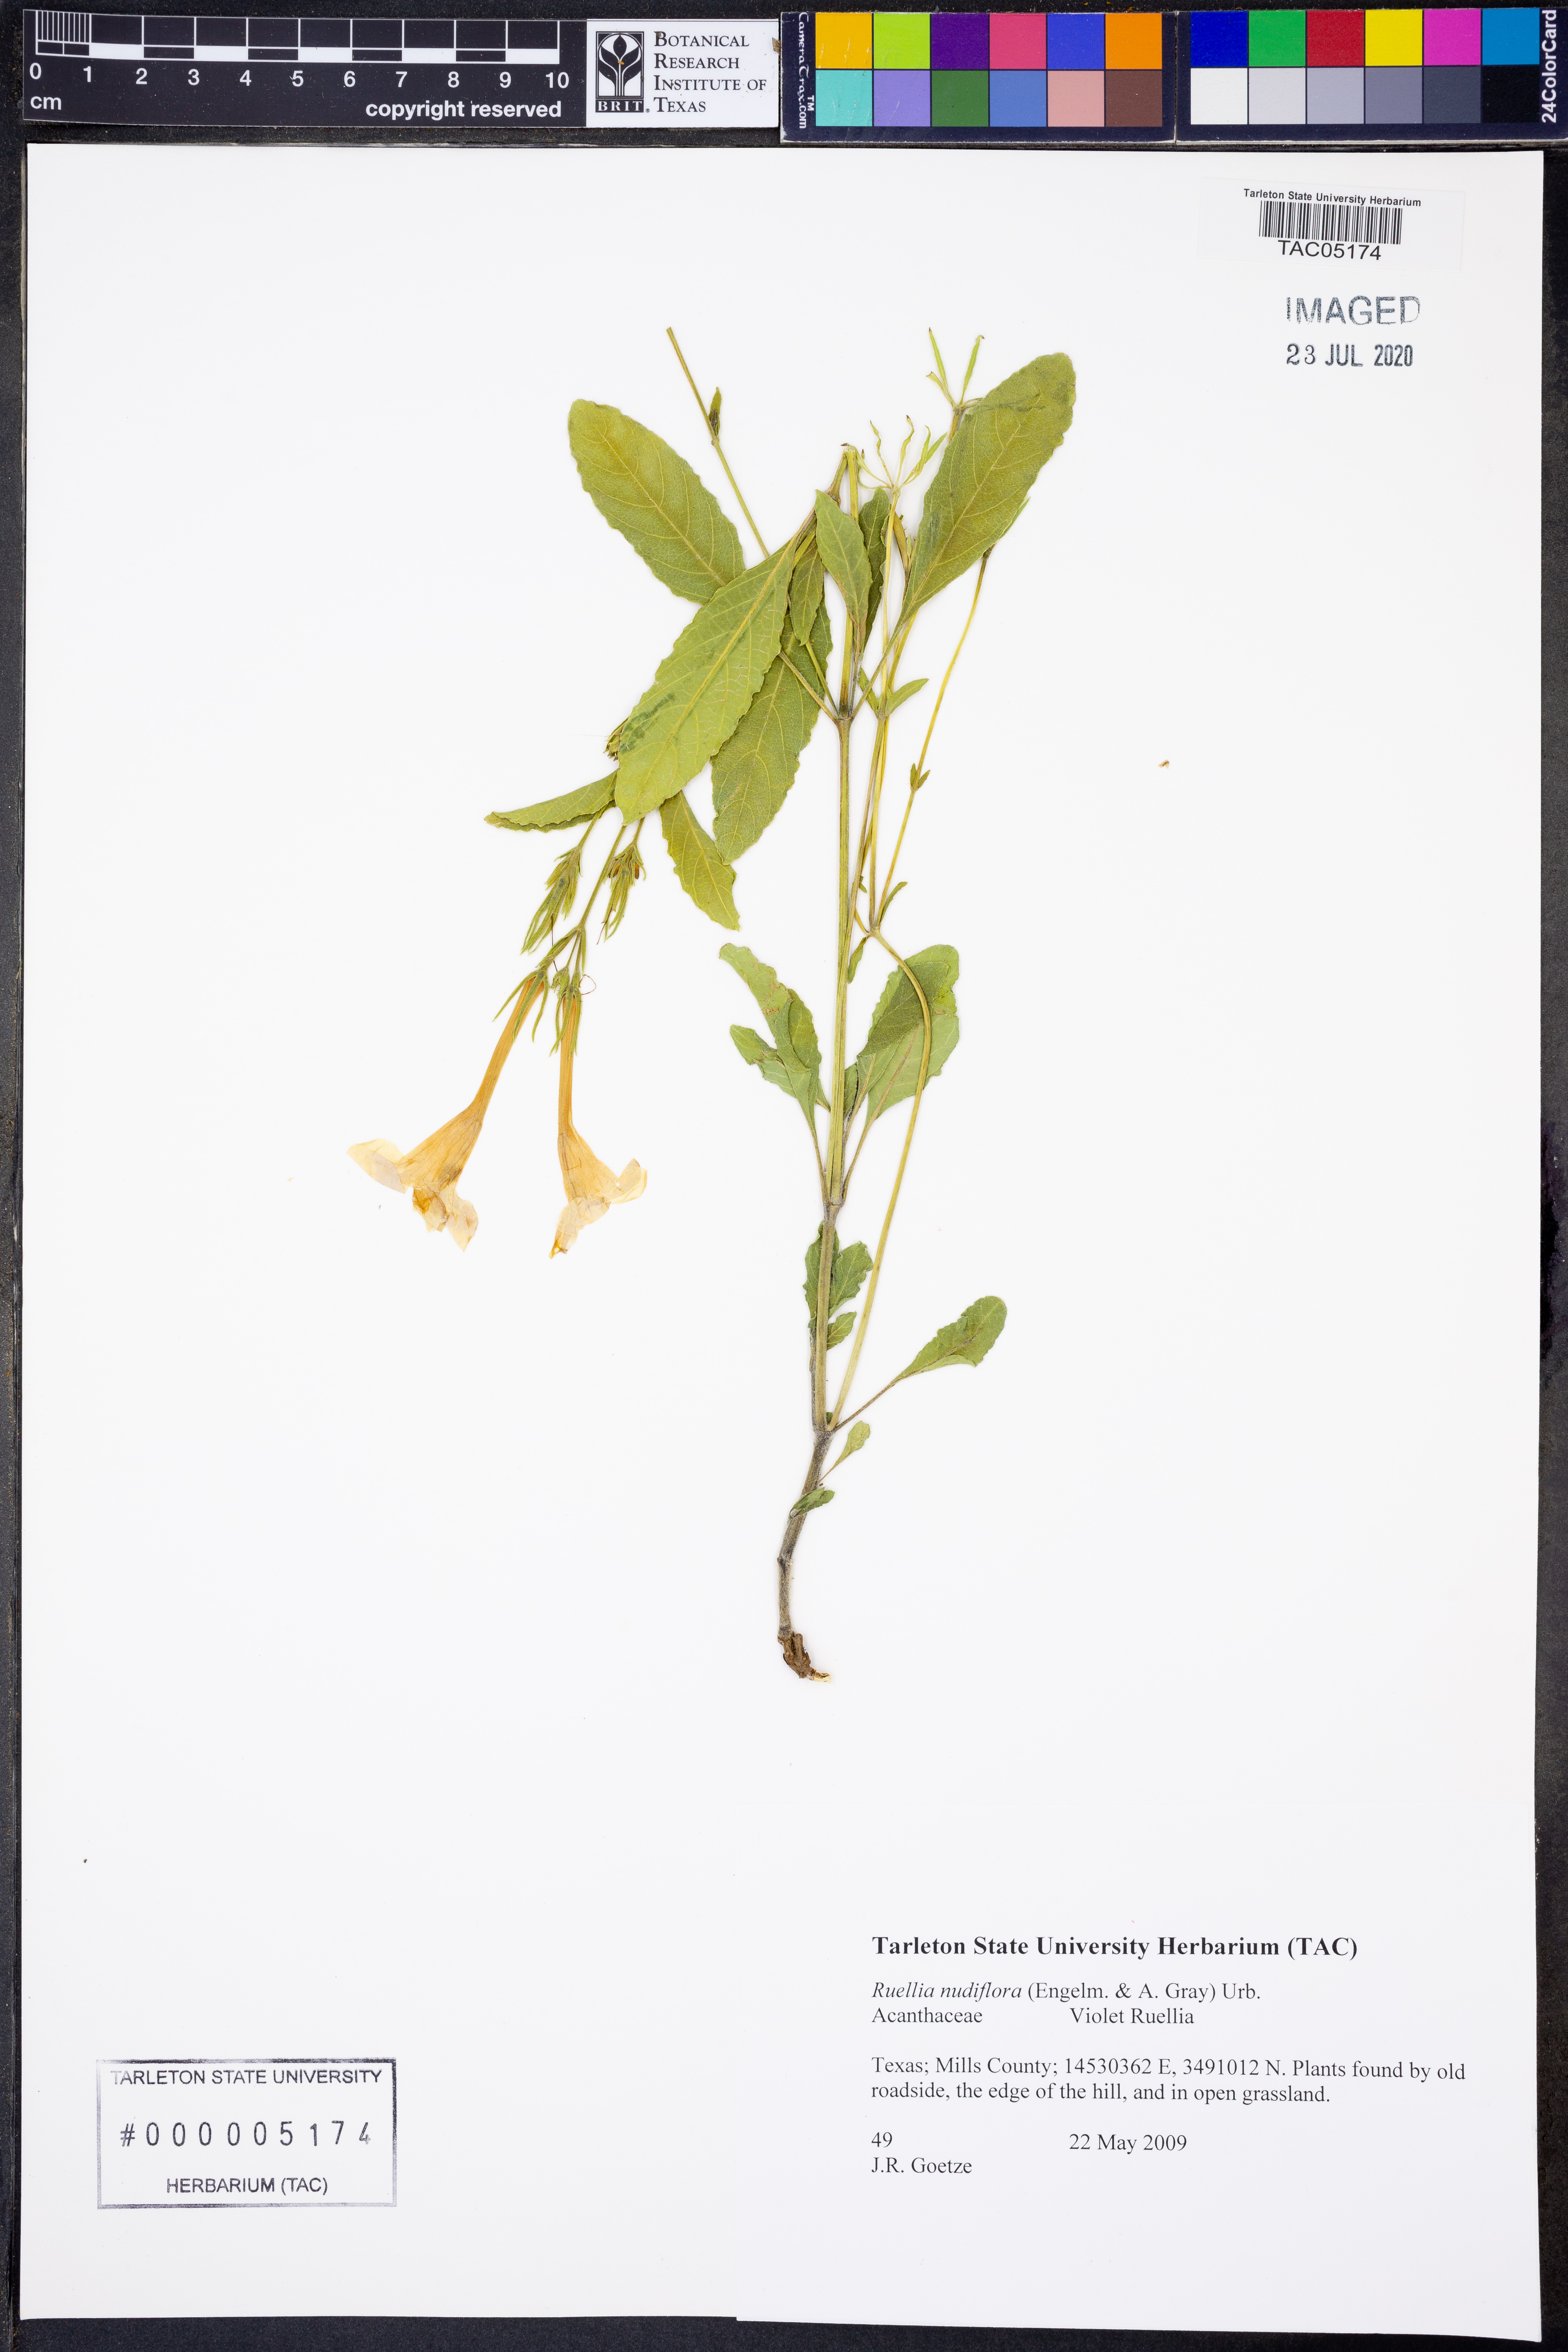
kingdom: Plantae
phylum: Tracheophyta
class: Magnoliopsida
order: Lamiales
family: Acanthaceae
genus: Ruellia
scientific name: Ruellia ciliatiflora
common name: Hairyflower wild petunia
